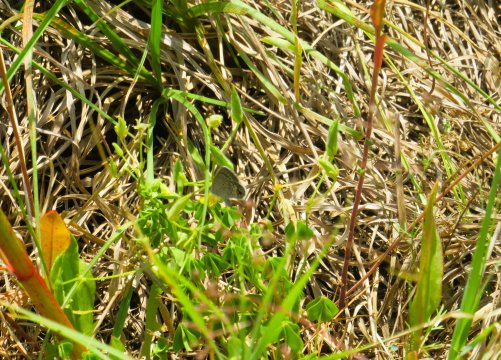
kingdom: Animalia
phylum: Arthropoda
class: Insecta
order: Lepidoptera
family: Lycaenidae
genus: Hemiargus
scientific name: Hemiargus ceraunus
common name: Ceraunus Blue
